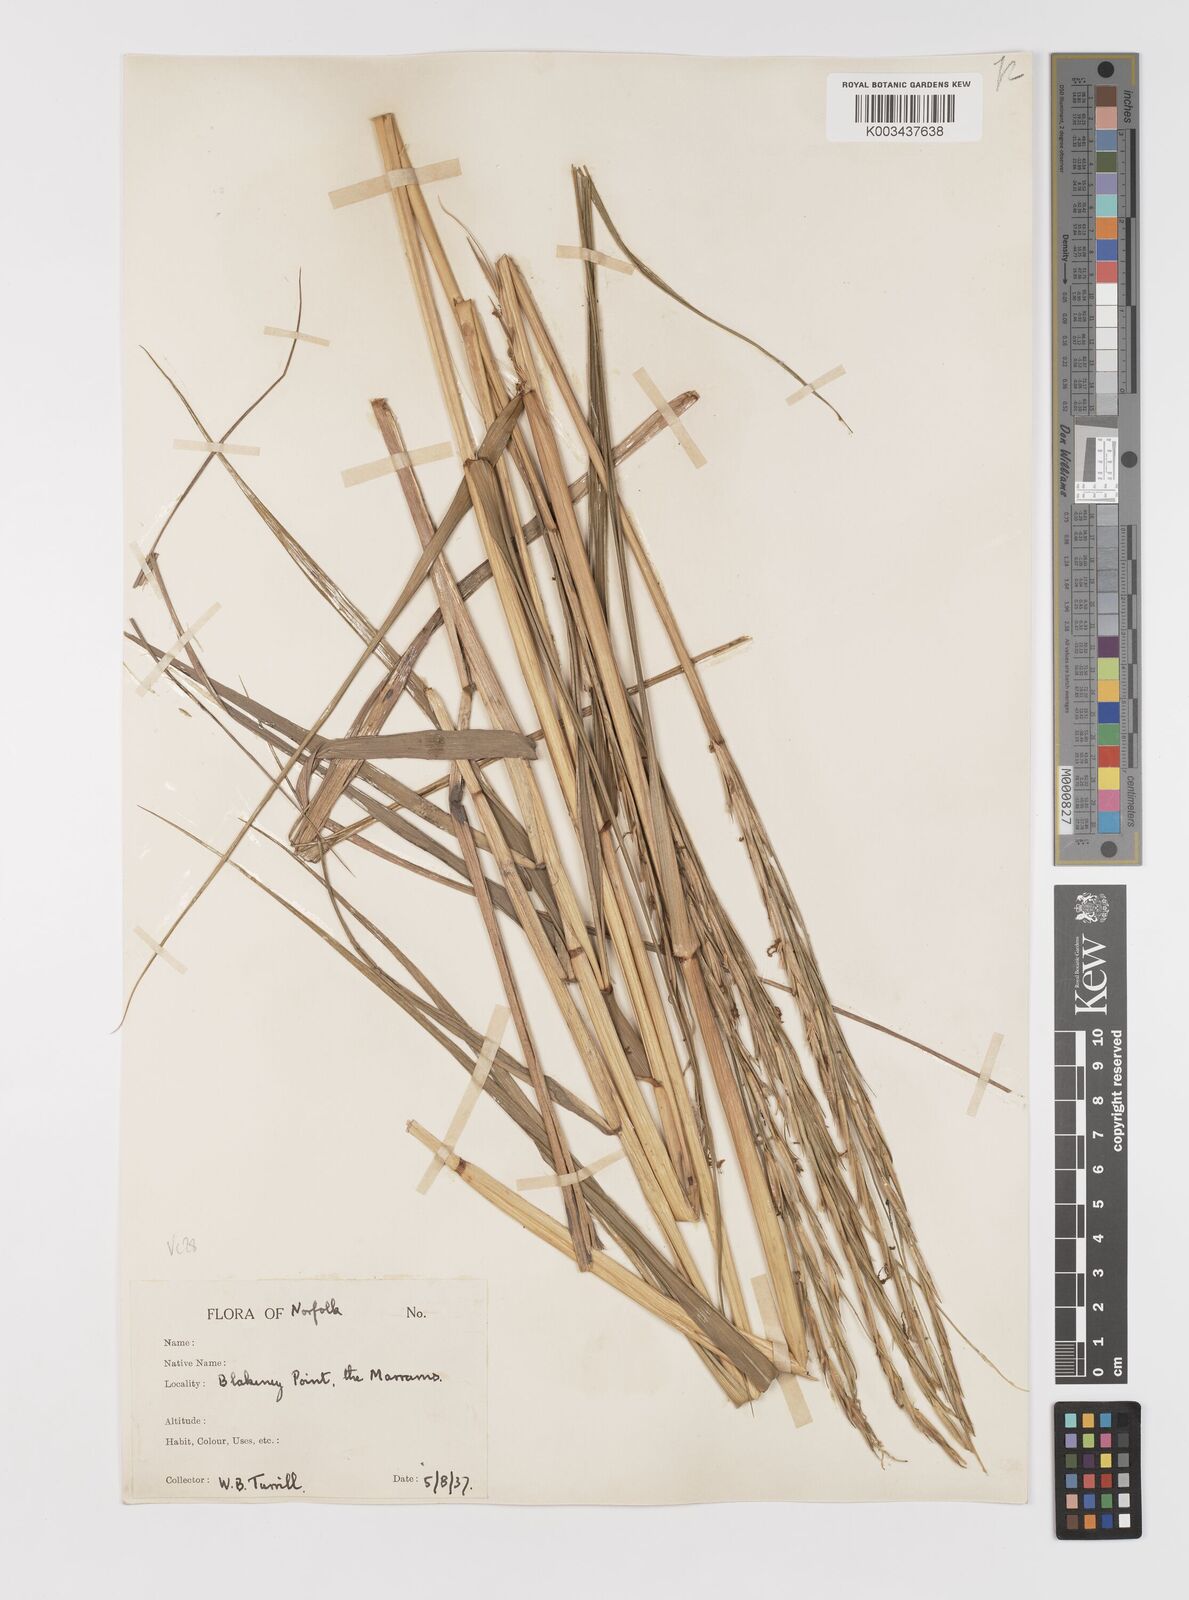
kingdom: Plantae
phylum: Tracheophyta
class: Liliopsida
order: Poales
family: Poaceae
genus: Sporobolus
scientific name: Sporobolus anglicus
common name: English cordgrass
